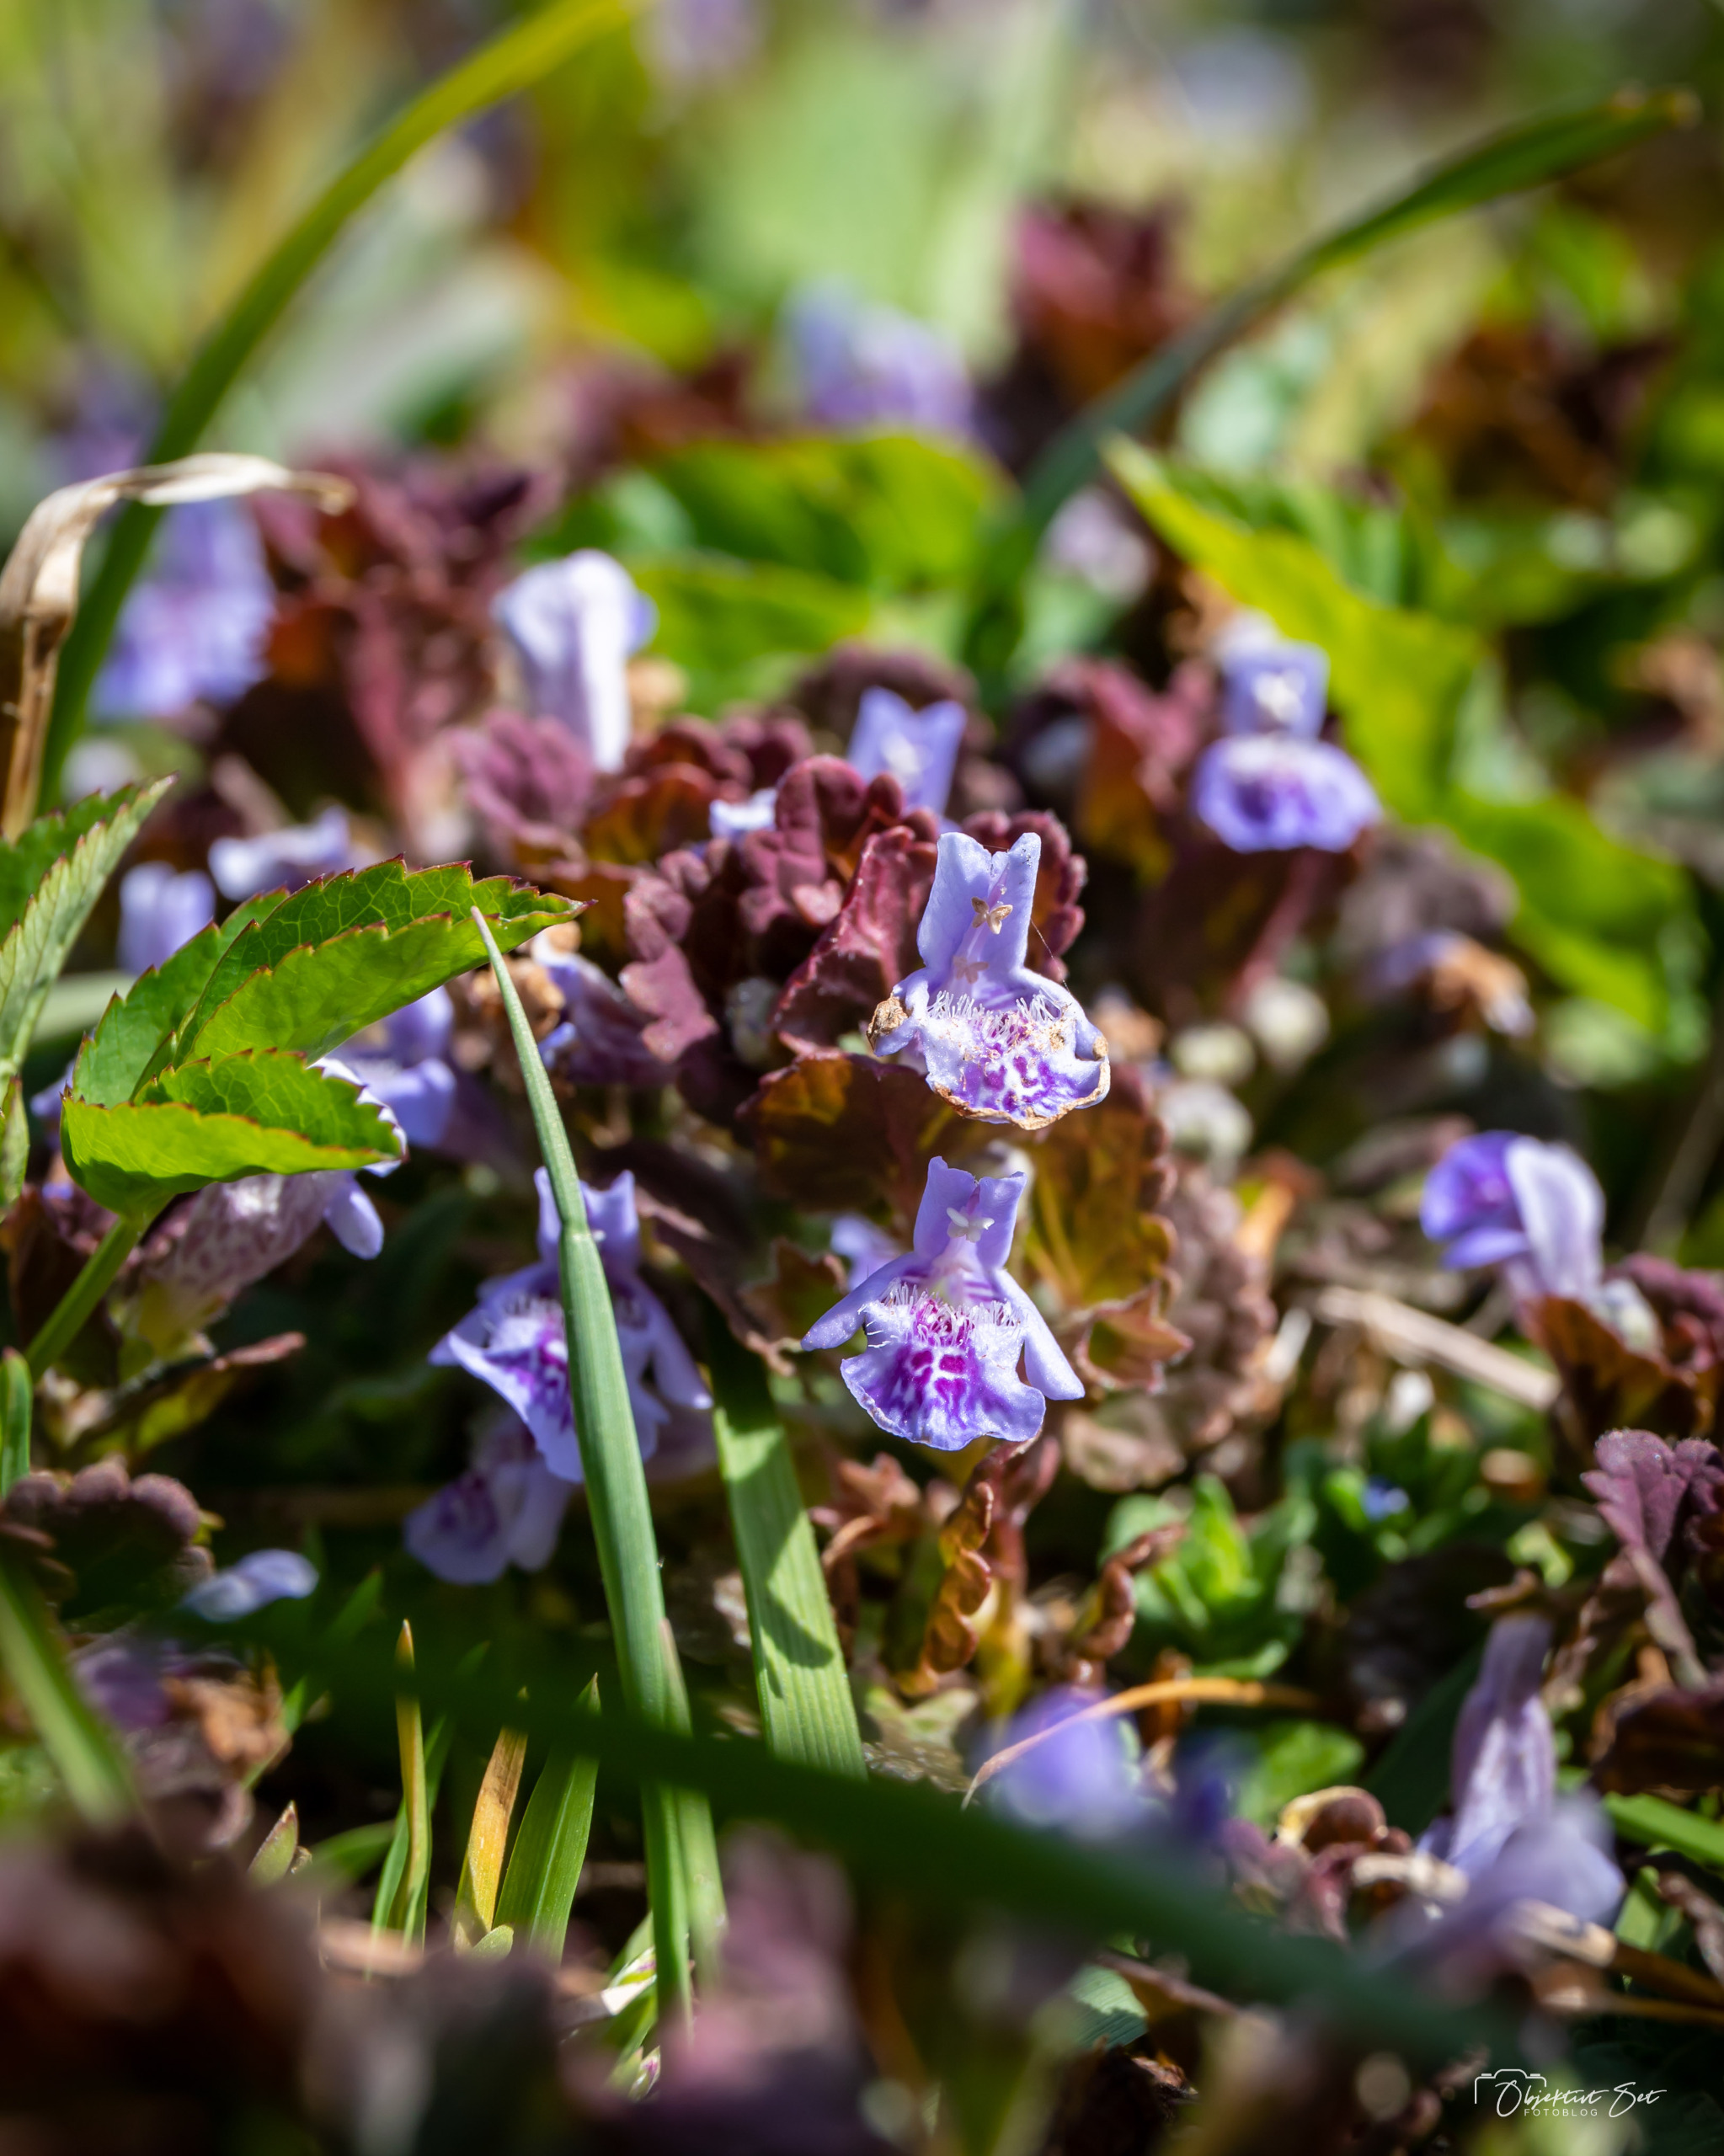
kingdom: Plantae
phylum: Tracheophyta
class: Magnoliopsida
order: Lamiales
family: Lamiaceae
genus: Glechoma
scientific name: Glechoma hederacea
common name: Korsknap
